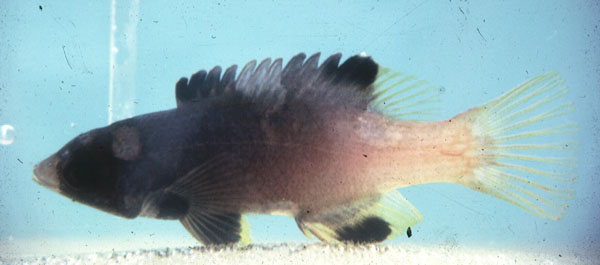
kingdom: Animalia
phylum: Chordata
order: Perciformes
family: Labridae
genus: Bodianus
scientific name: Bodianus axillaris
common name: Axilspot hogfish
